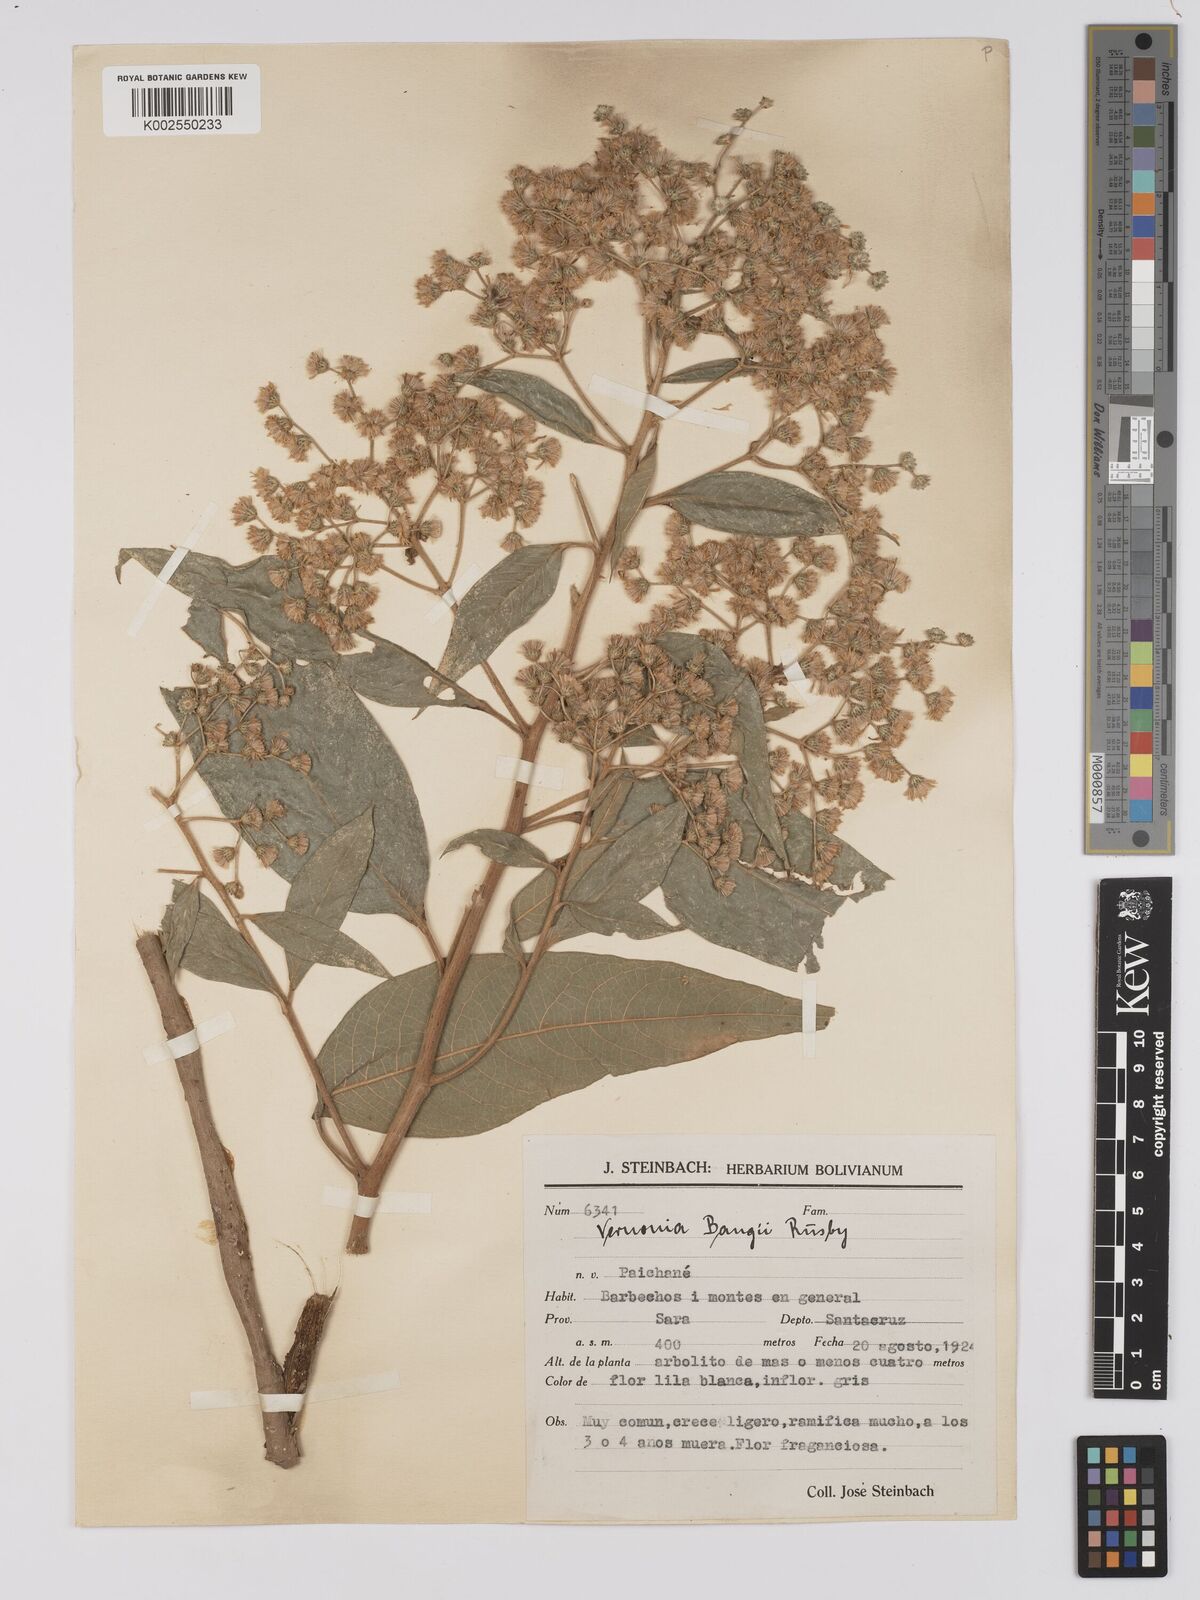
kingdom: Plantae
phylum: Tracheophyta
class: Magnoliopsida
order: Asterales
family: Asteraceae
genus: Vernonanthura
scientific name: Vernonanthura patens
